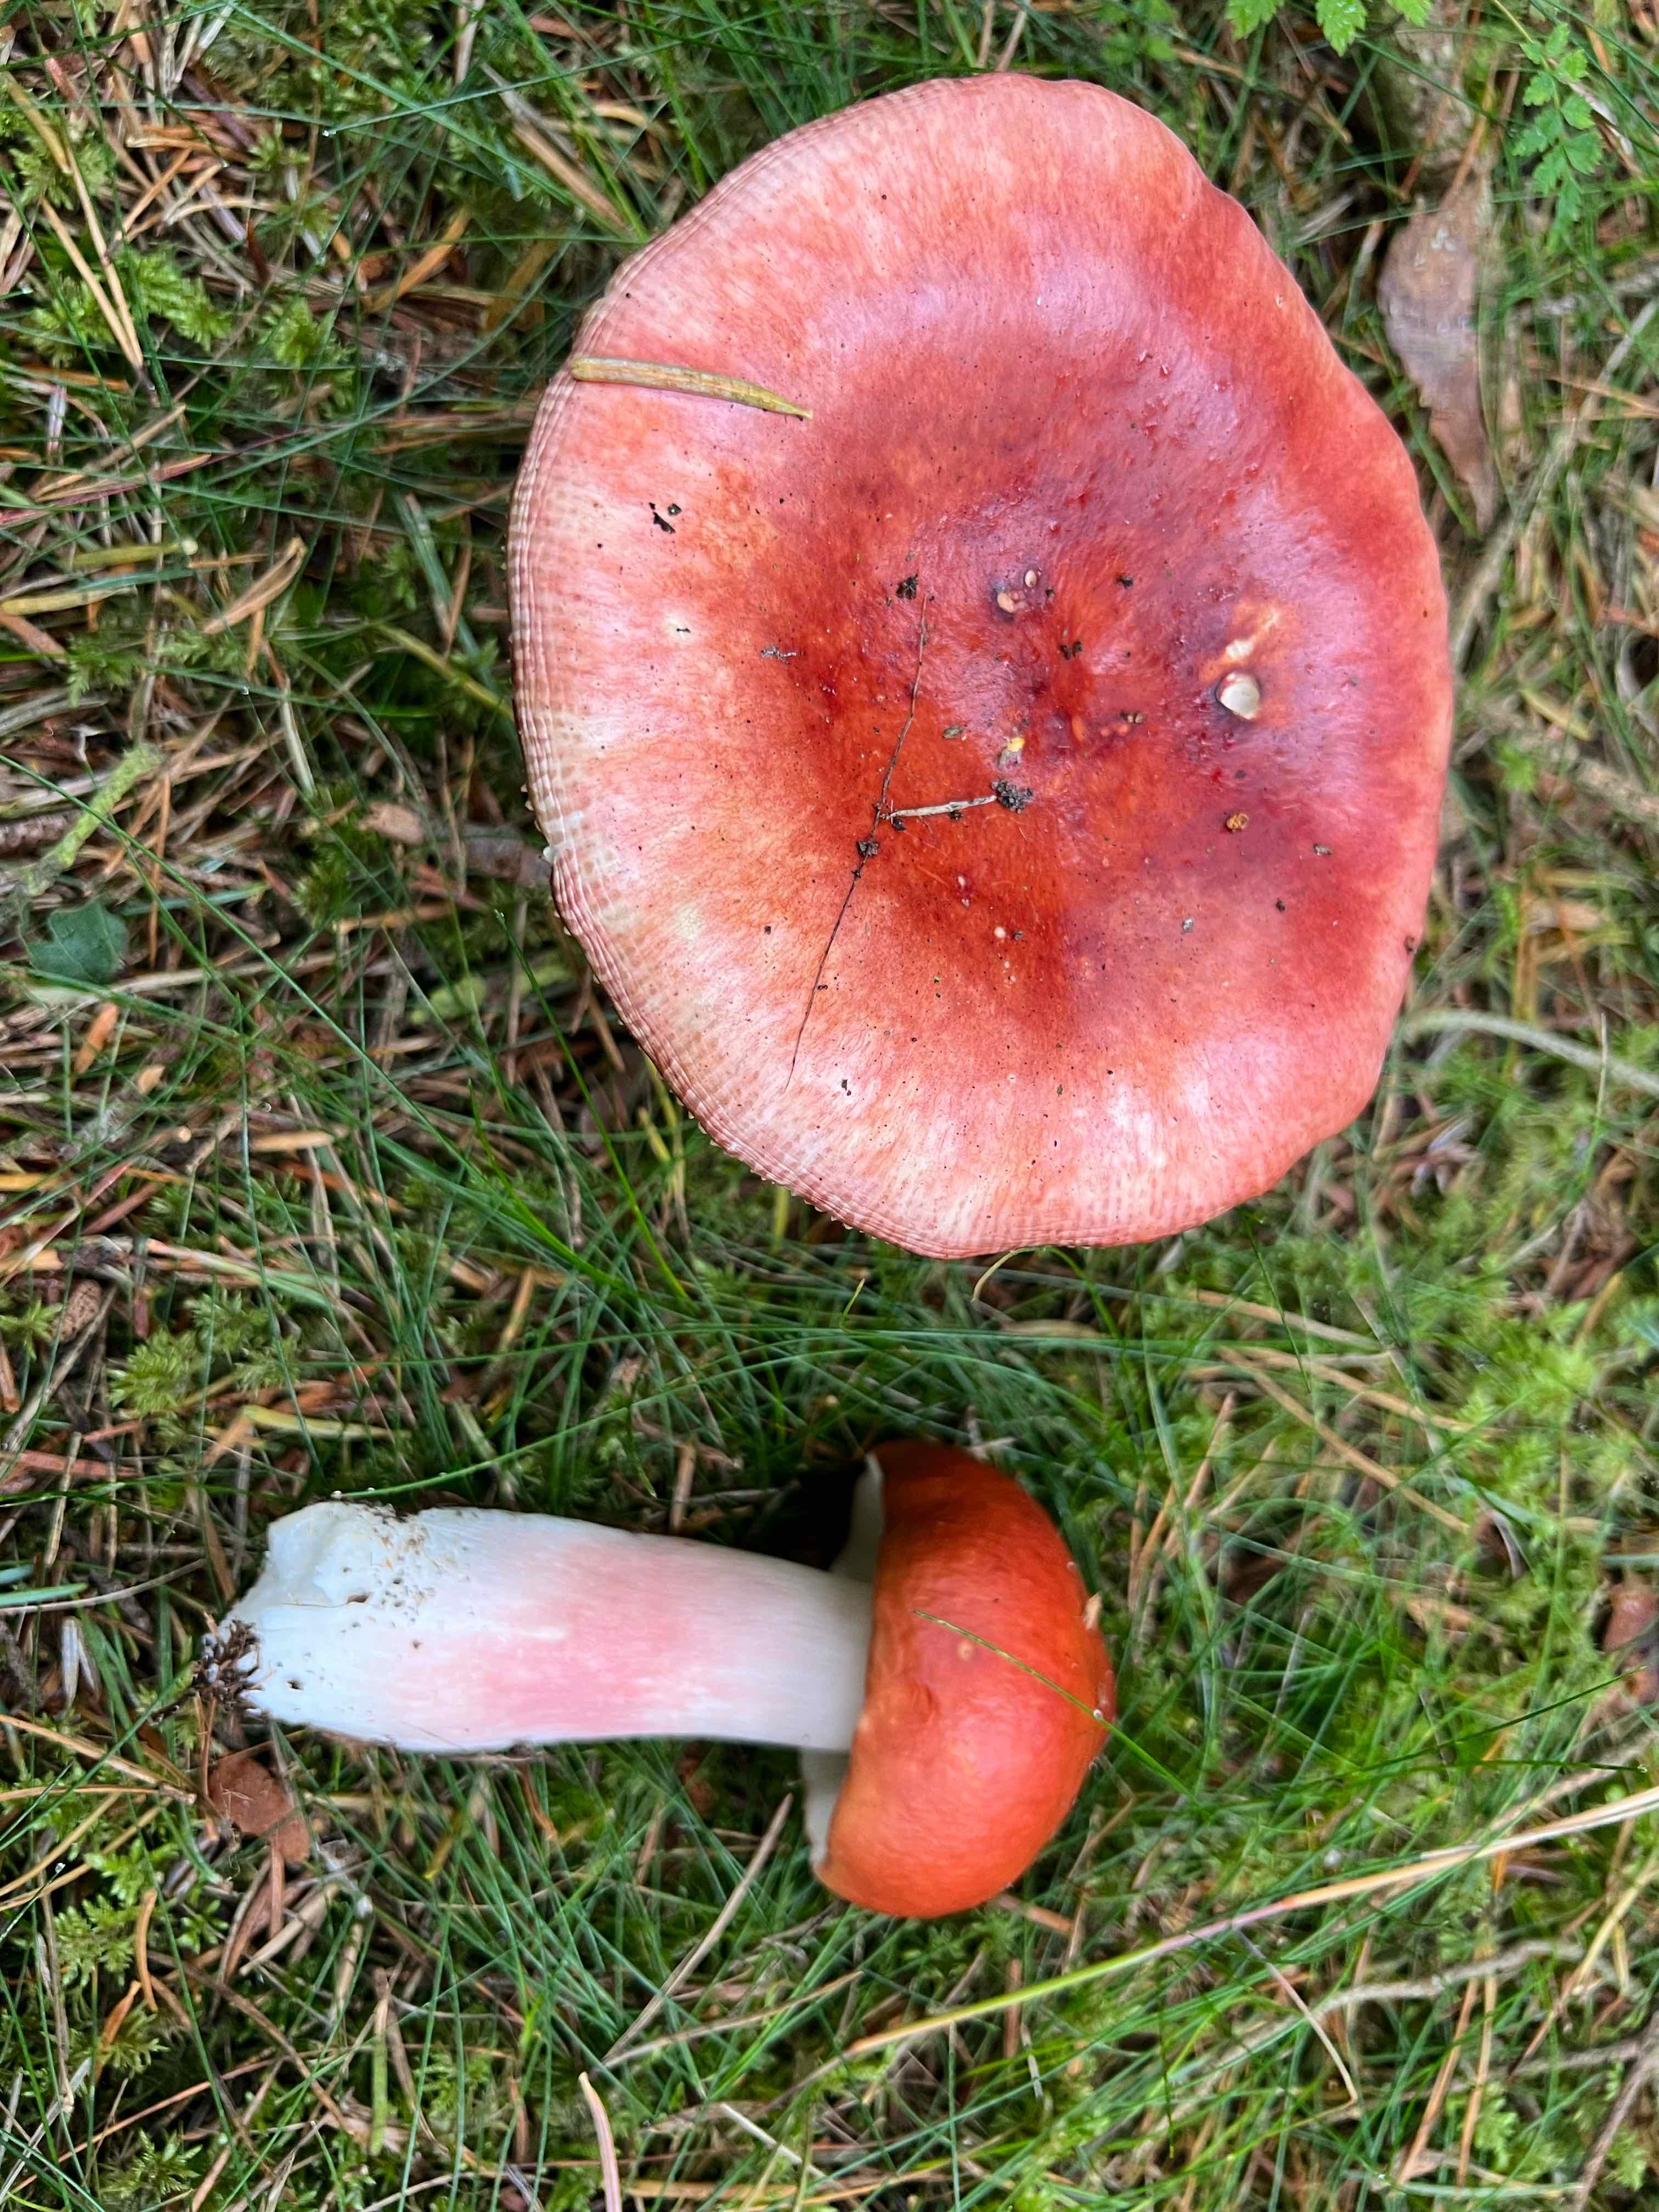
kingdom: Fungi
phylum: Basidiomycota
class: Agaricomycetes
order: Russulales
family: Russulaceae
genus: Russula
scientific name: Russula paludosa
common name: prægtig skørhat
